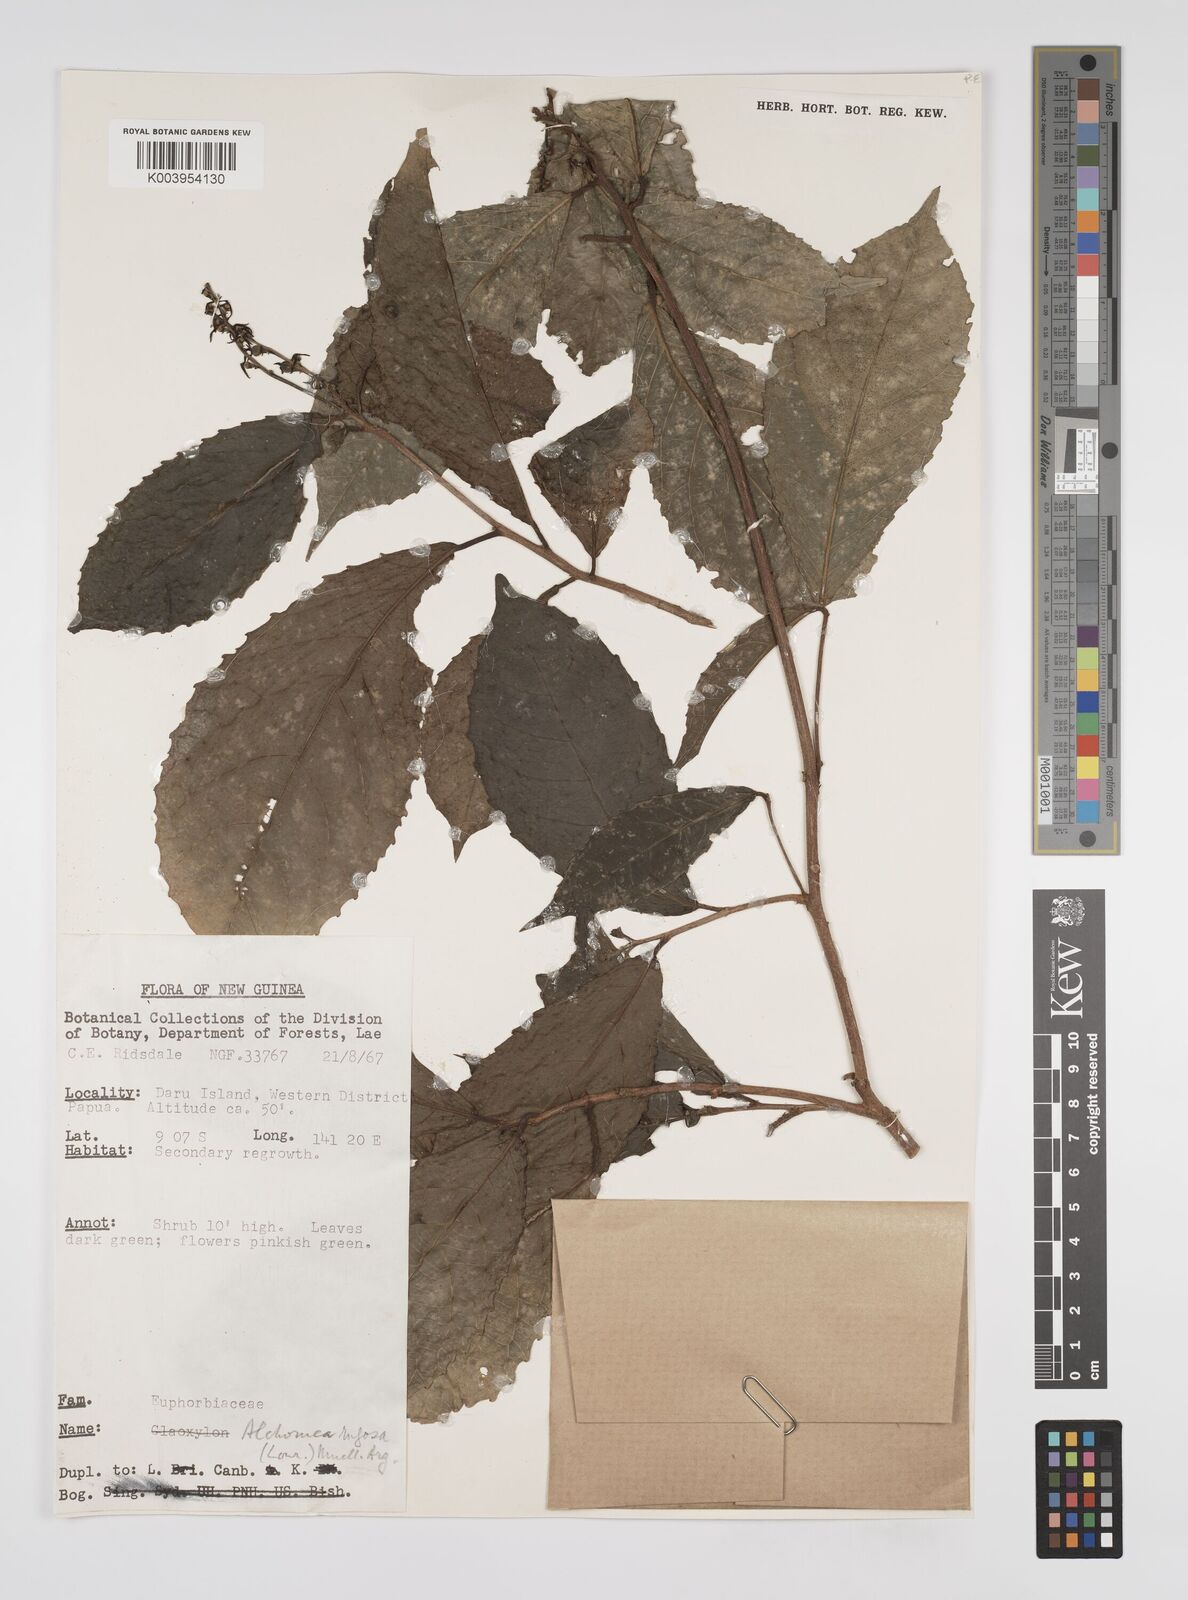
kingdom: Plantae
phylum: Tracheophyta
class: Magnoliopsida
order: Malpighiales
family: Euphorbiaceae
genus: Alchornea
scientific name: Alchornea rugosa
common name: Alchorntree
